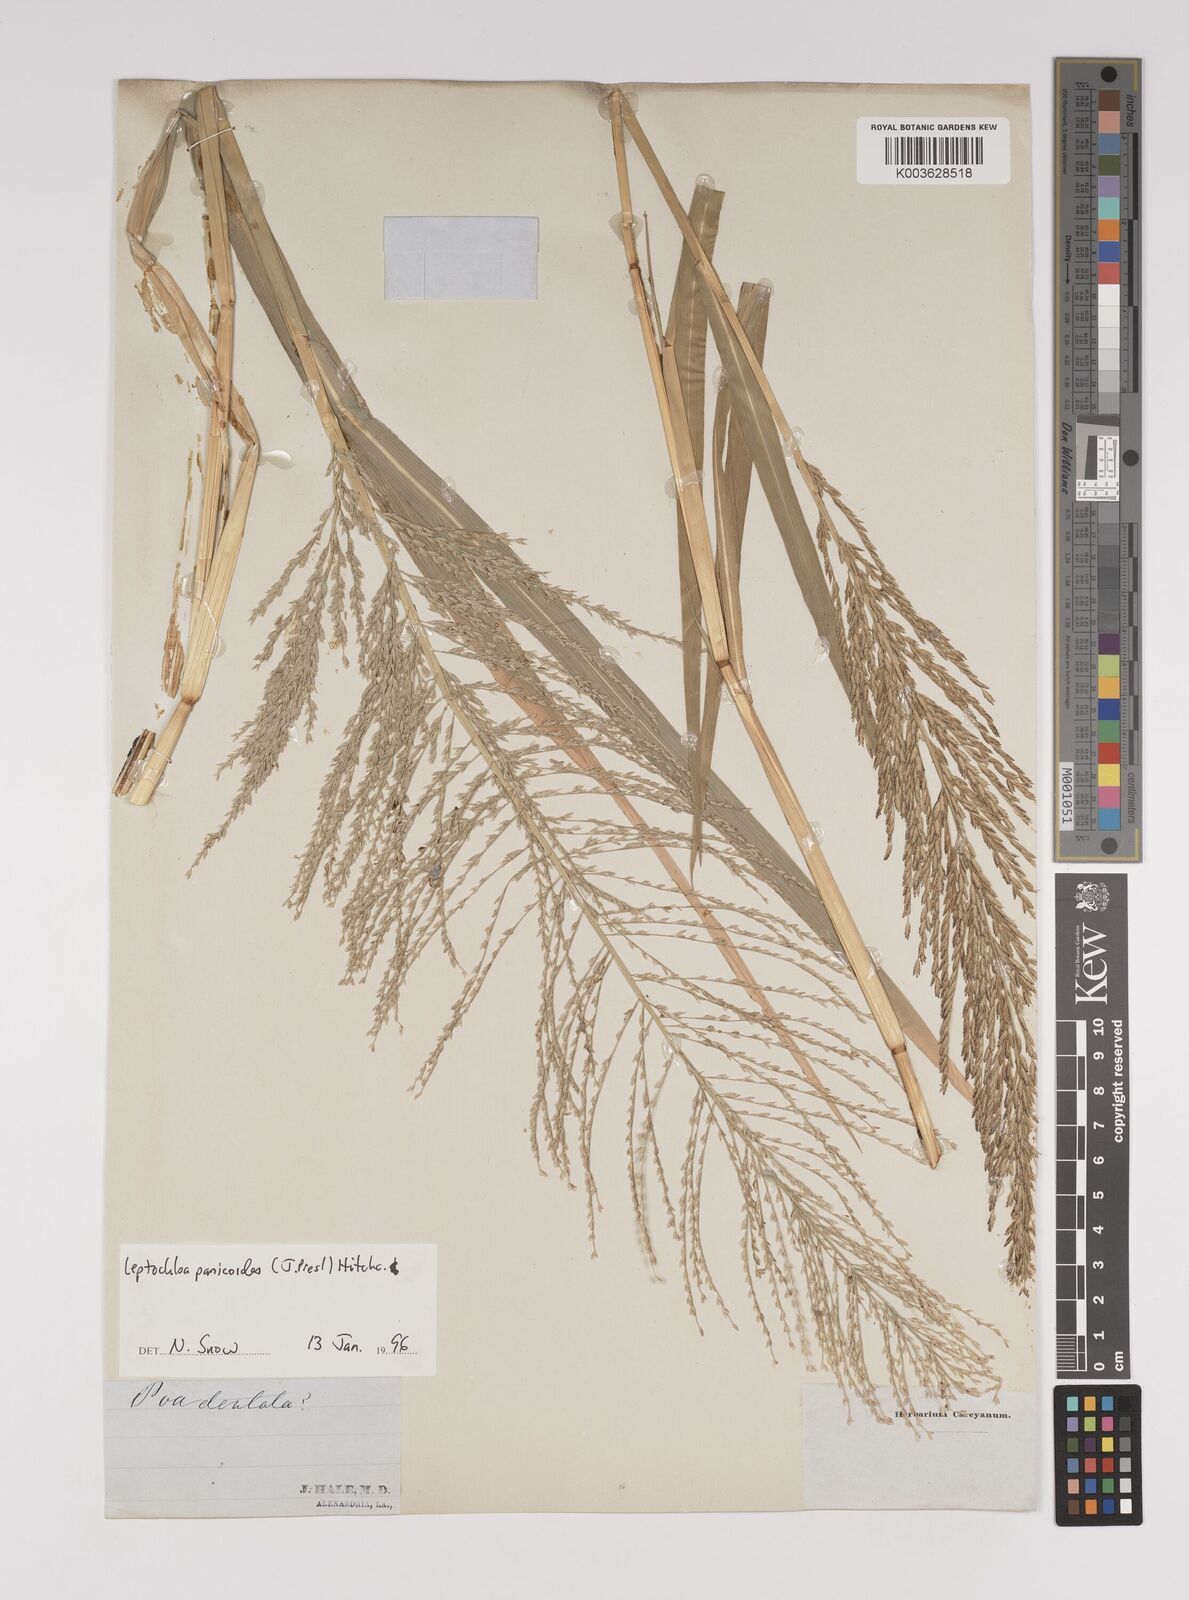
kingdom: Plantae
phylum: Tracheophyta
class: Liliopsida
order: Poales
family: Poaceae
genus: Leptochloa
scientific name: Leptochloa panicoides
